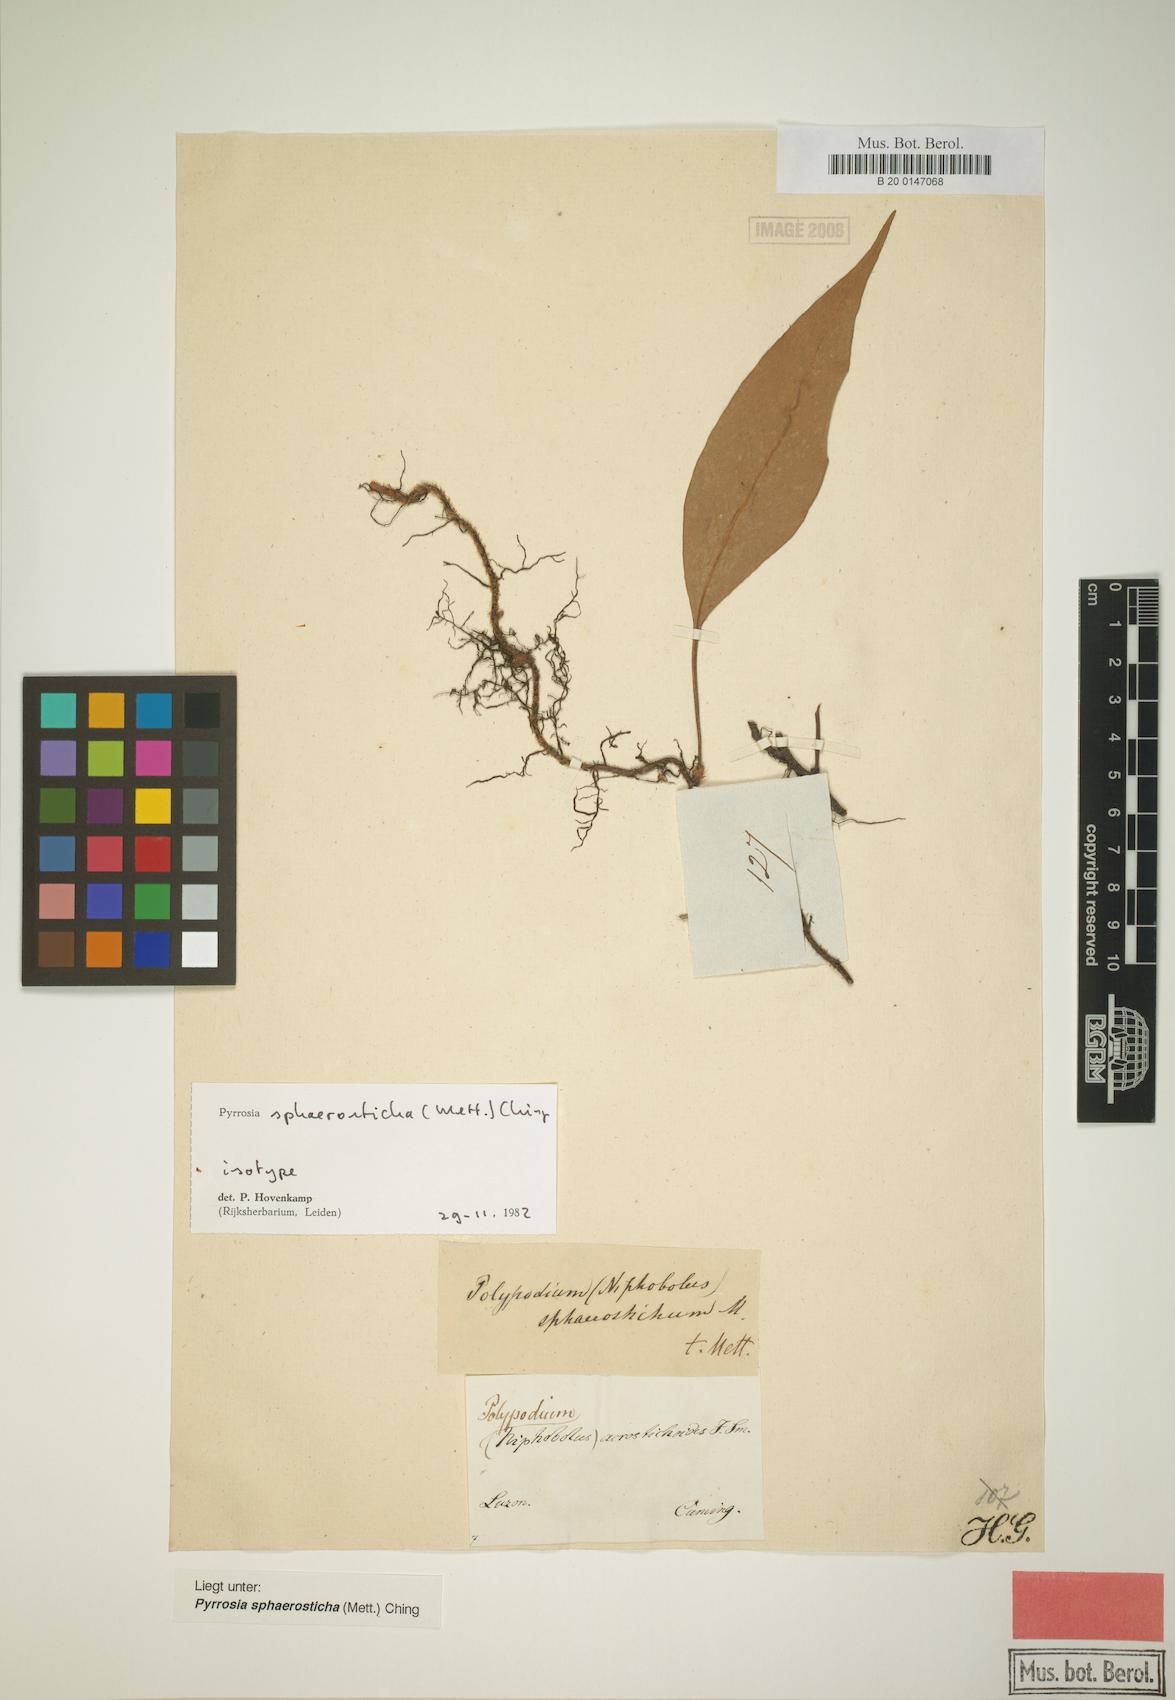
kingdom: Plantae
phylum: Tracheophyta
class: Polypodiopsida
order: Polypodiales
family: Polypodiaceae
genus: Pyrrosia
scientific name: Pyrrosia sphaerosticha
